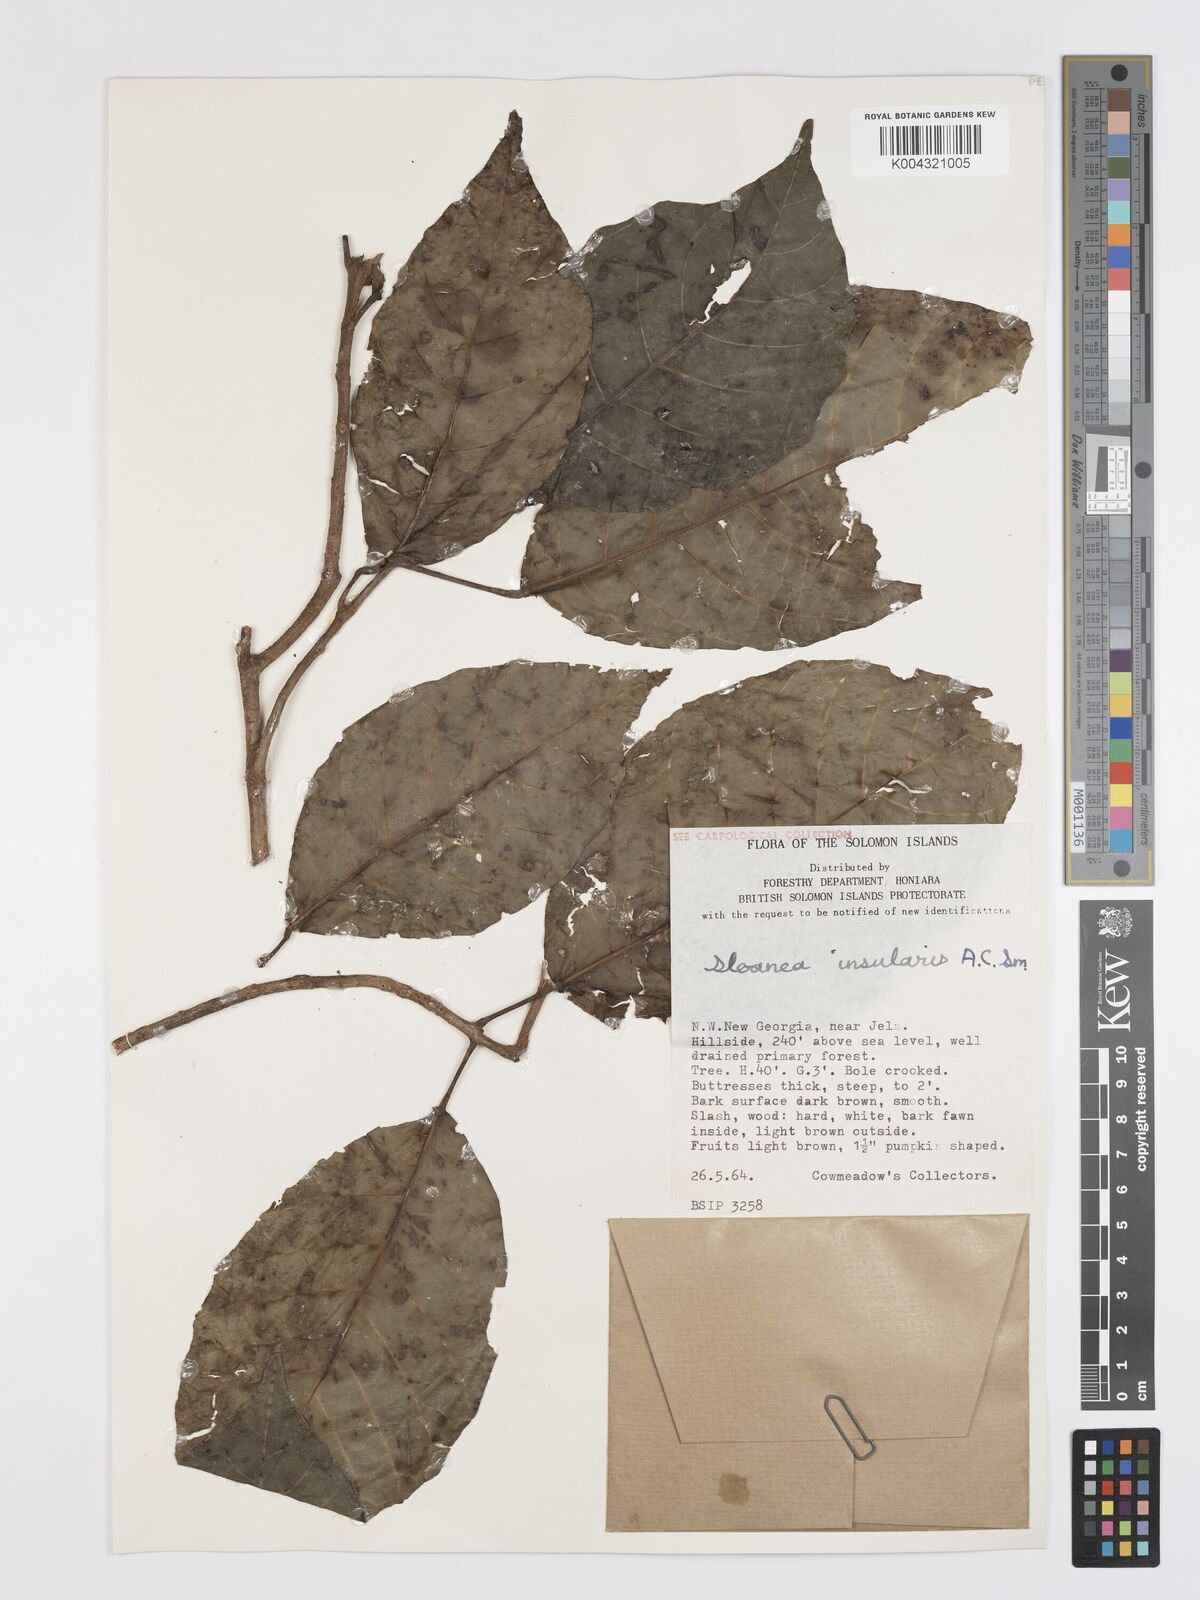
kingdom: Plantae
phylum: Tracheophyta
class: Magnoliopsida
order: Oxalidales
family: Elaeocarpaceae
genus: Sloanea
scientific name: Sloanea insularis
